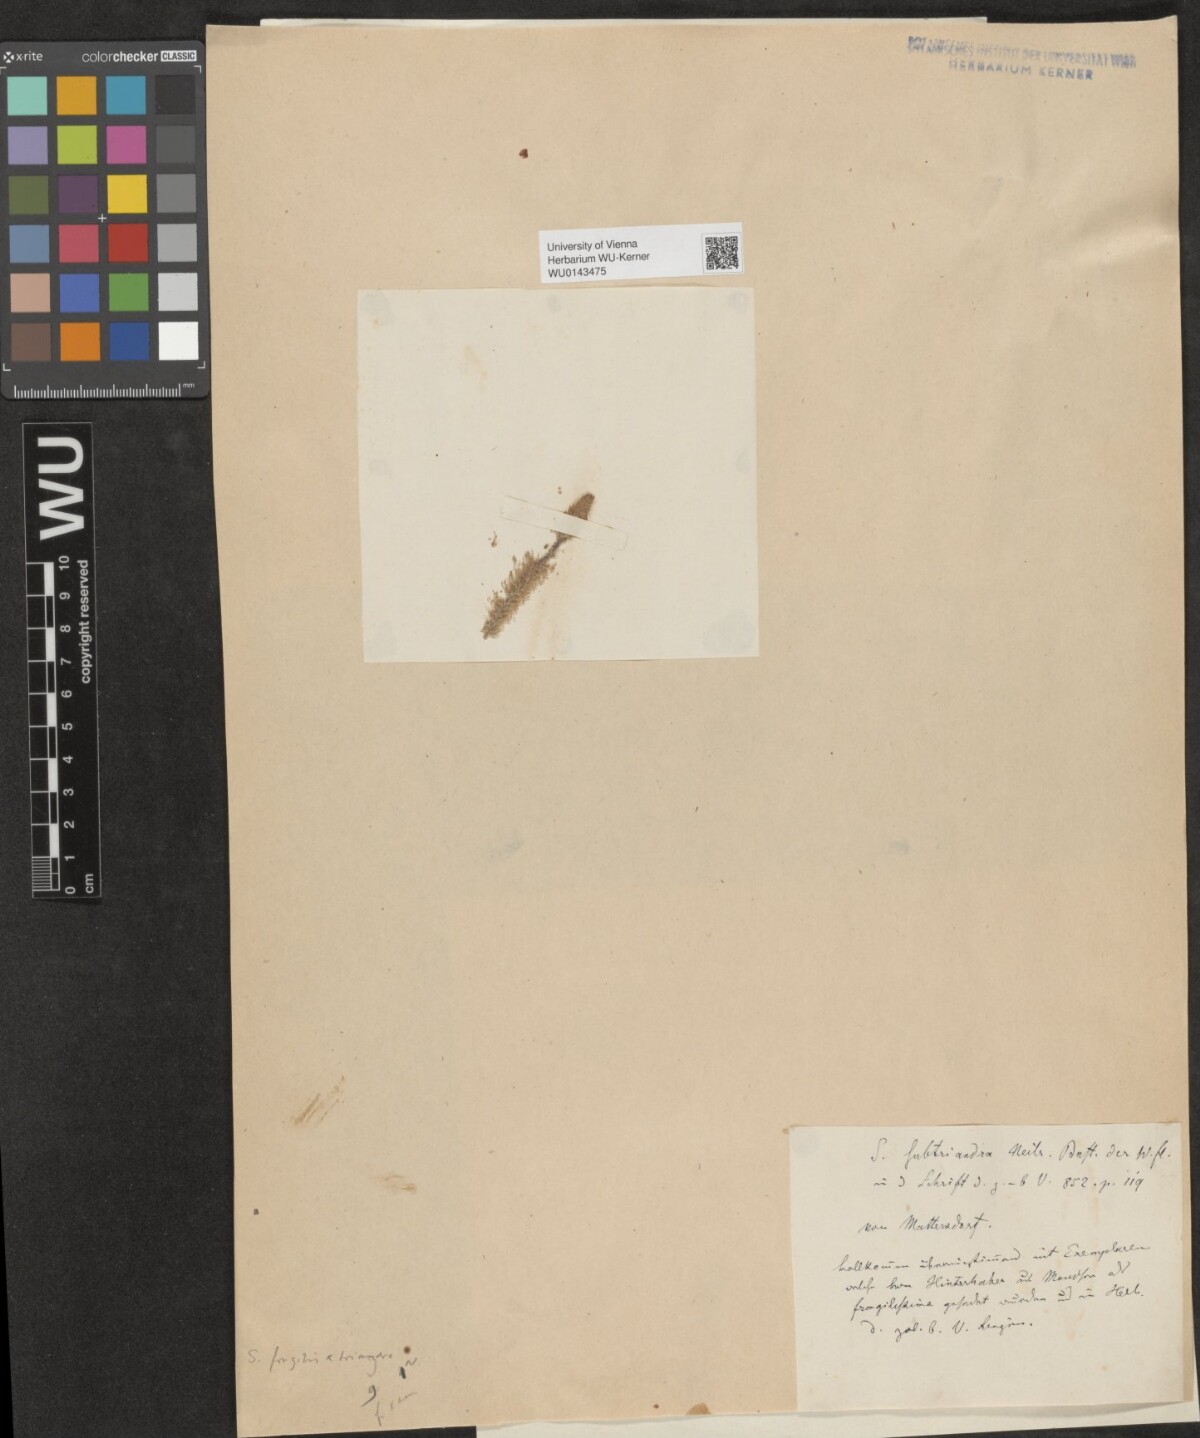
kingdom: Plantae
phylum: Tracheophyta
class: Magnoliopsida
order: Malpighiales
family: Salicaceae
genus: Salix
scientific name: Salix subtriandra
